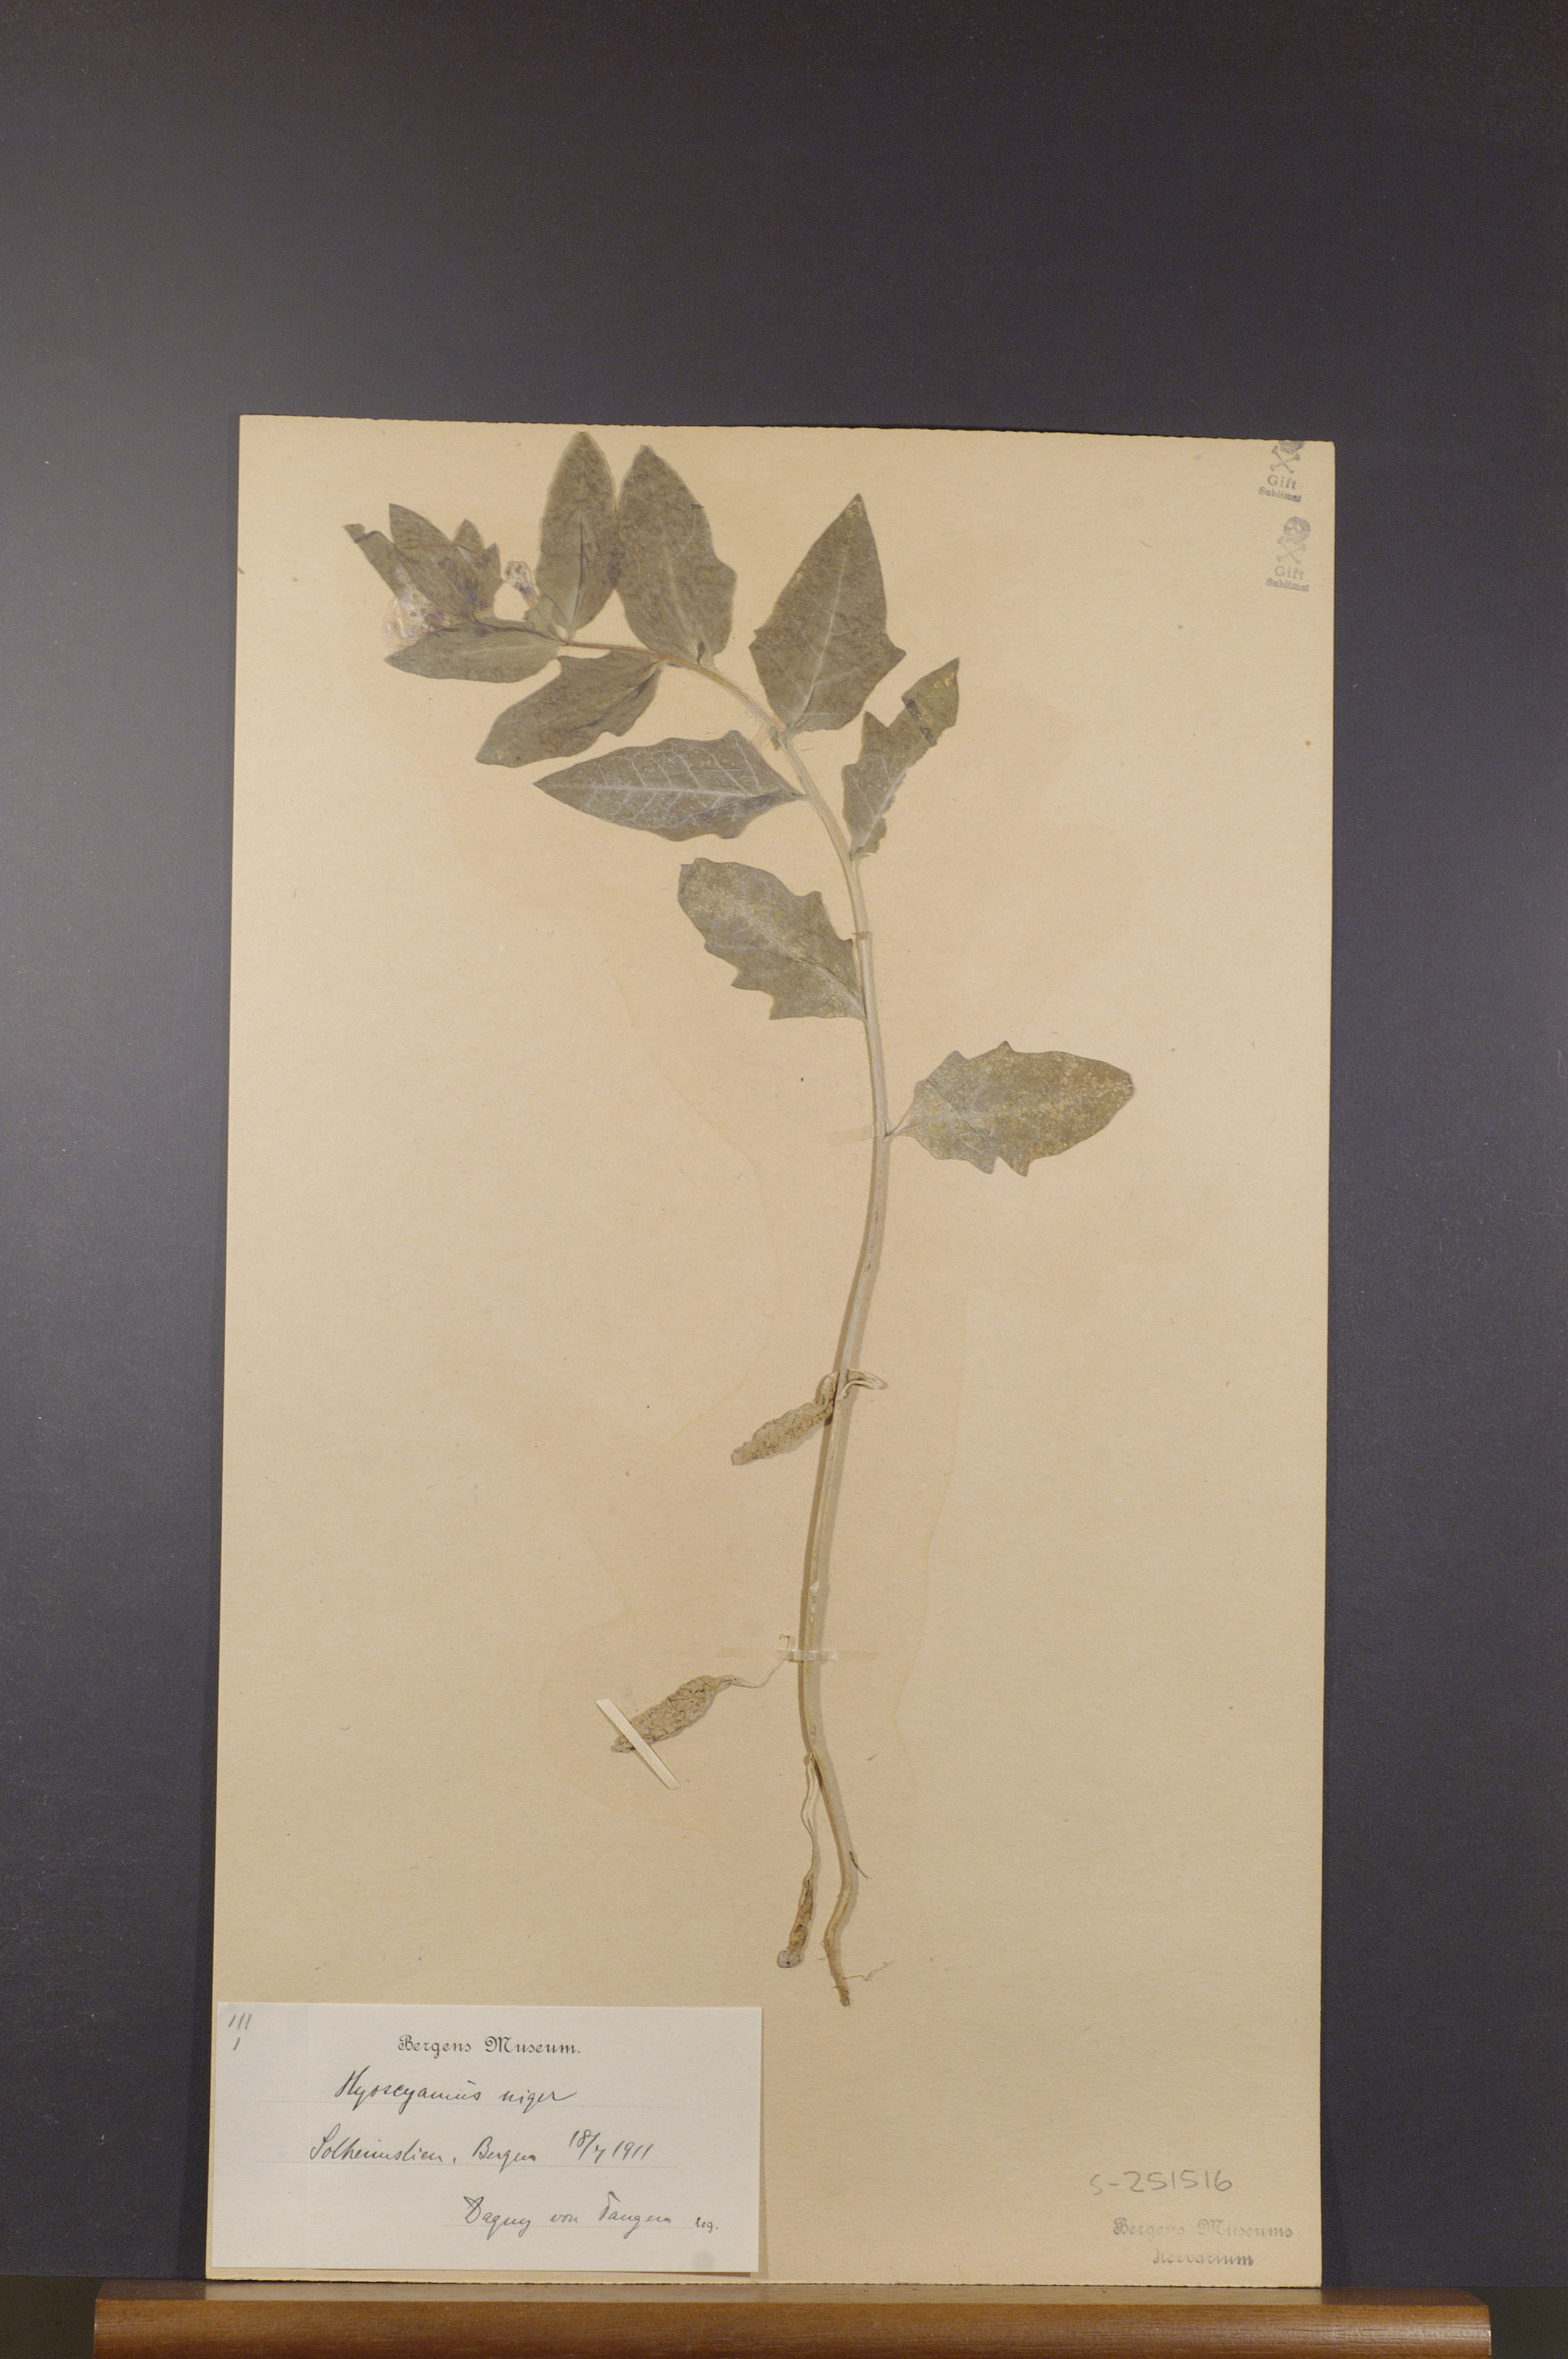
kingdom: Plantae
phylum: Tracheophyta
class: Magnoliopsida
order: Solanales
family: Solanaceae
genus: Hyoscyamus
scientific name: Hyoscyamus niger
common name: Henbane
